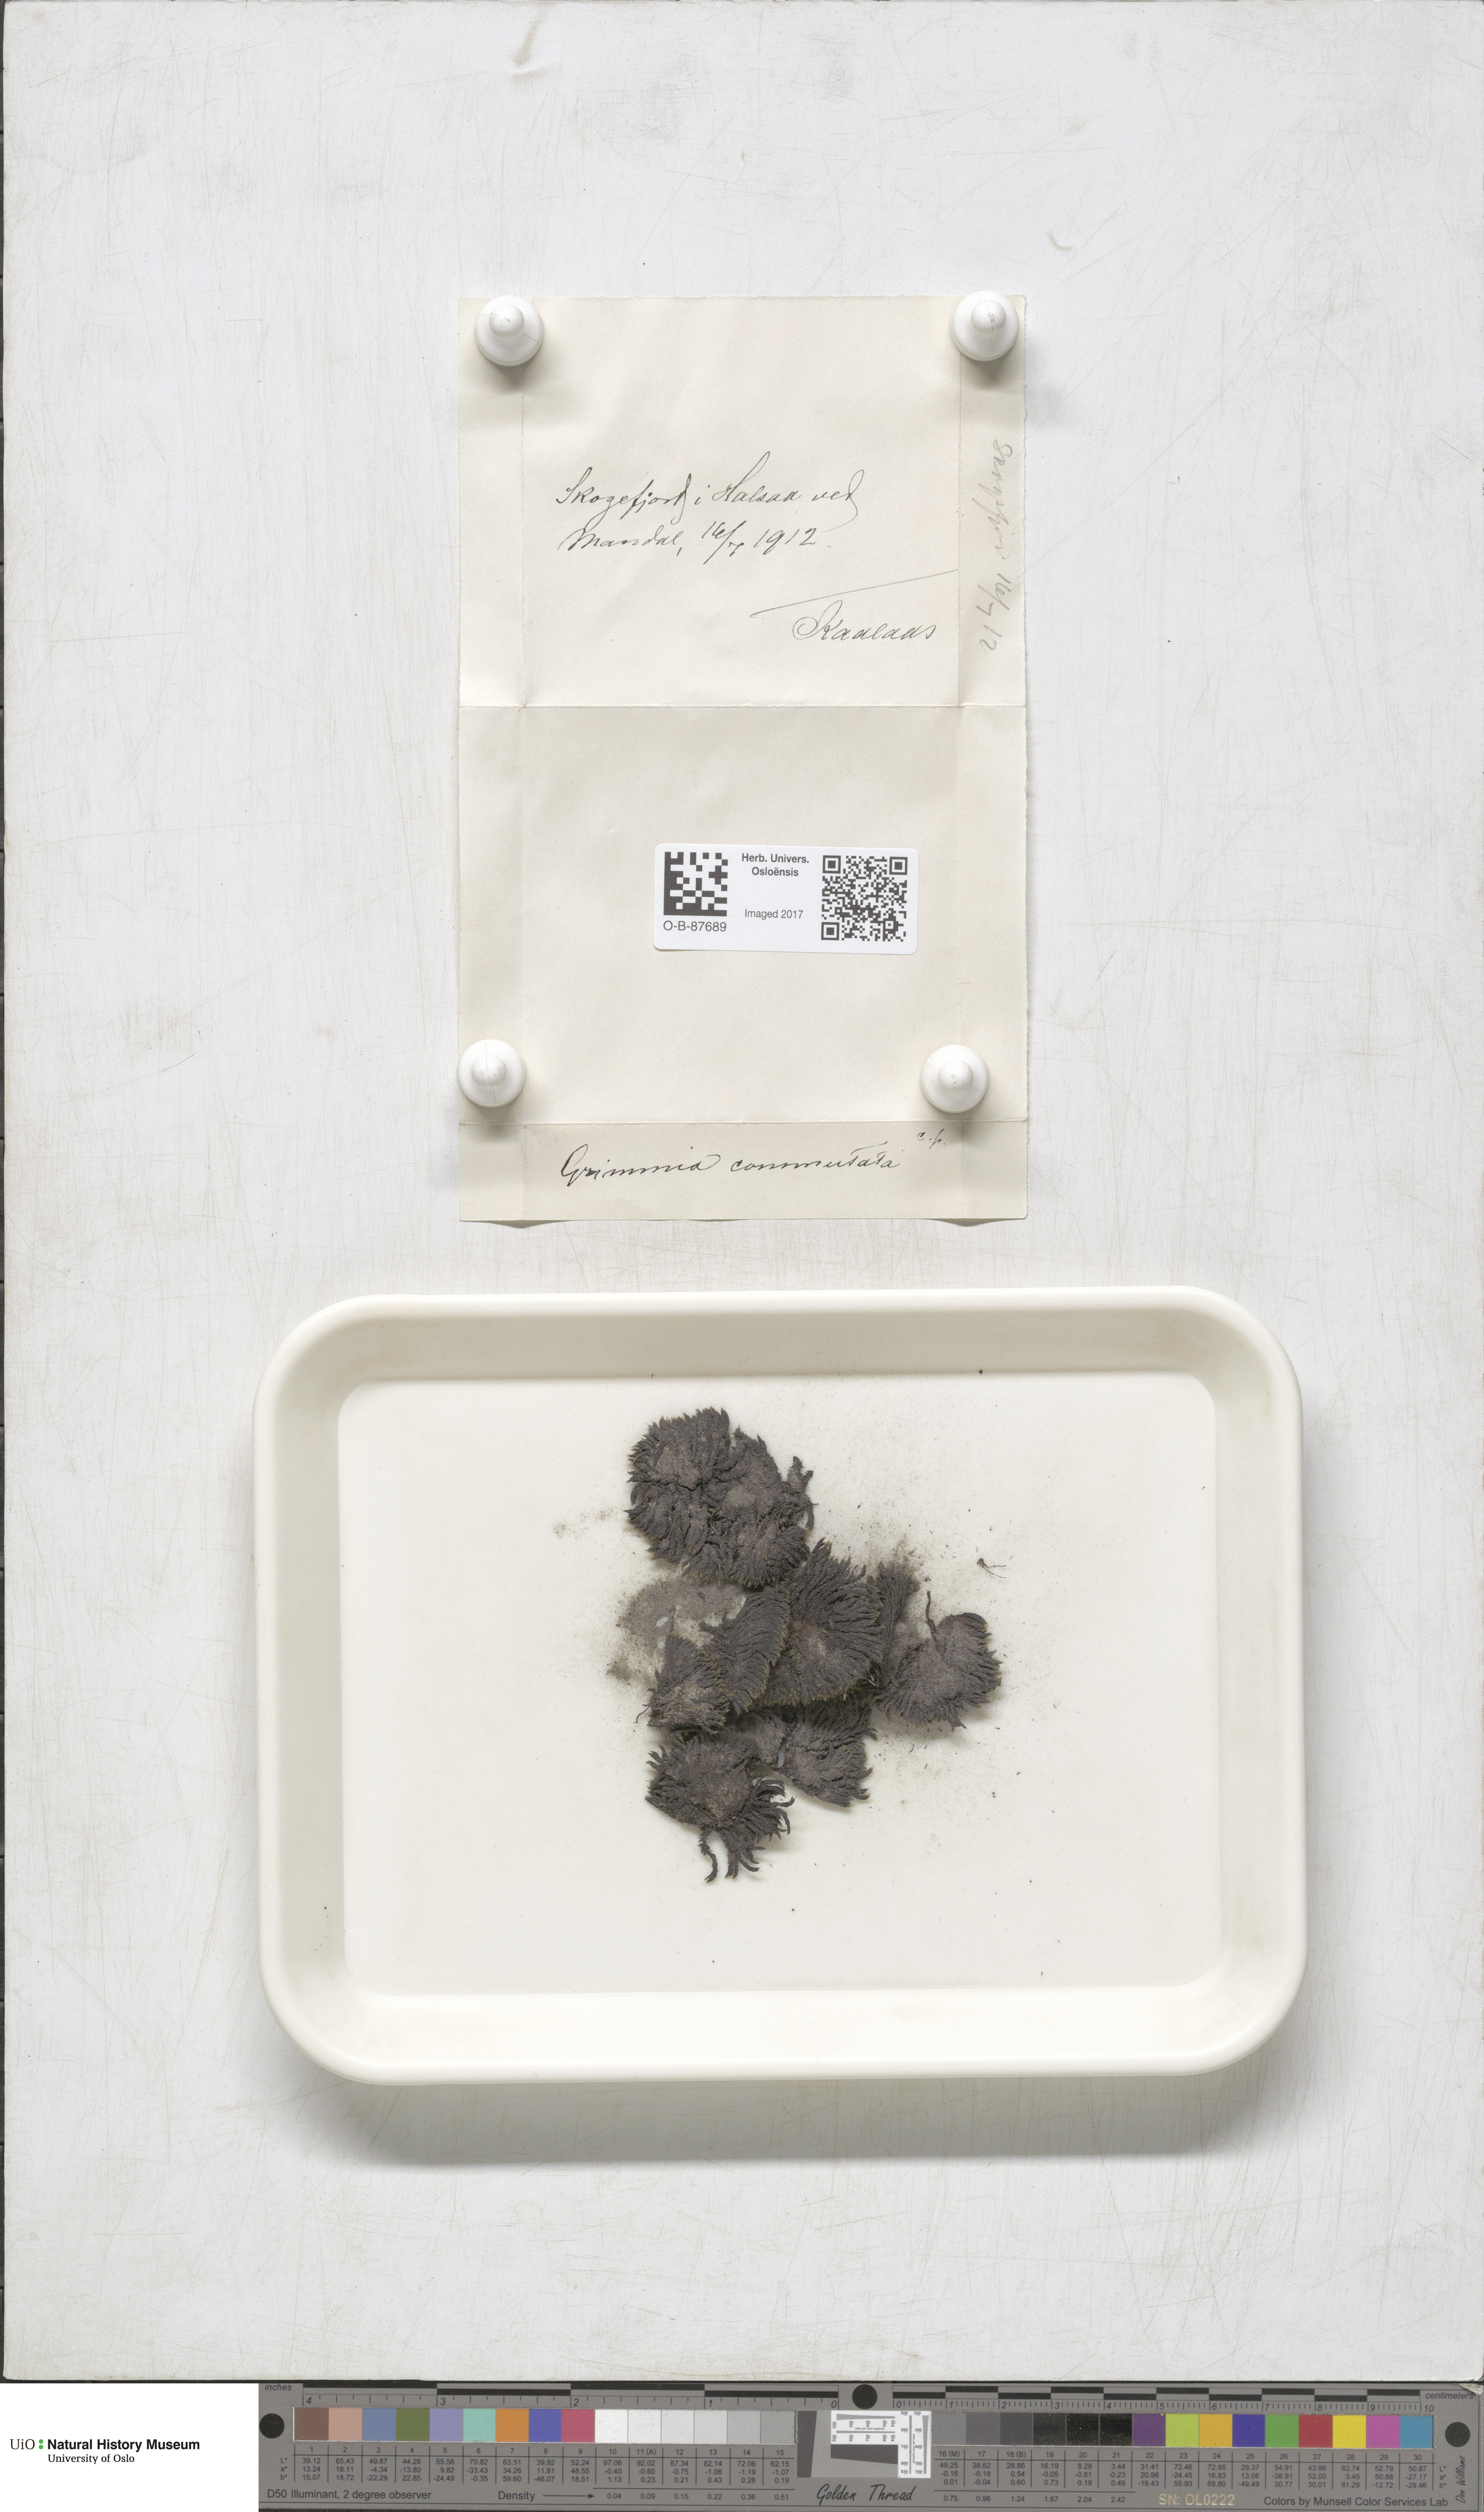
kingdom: Plantae
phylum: Bryophyta
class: Bryopsida
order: Grimmiales
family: Grimmiaceae
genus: Grimmia
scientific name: Grimmia ovalis
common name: Oval grimmia
